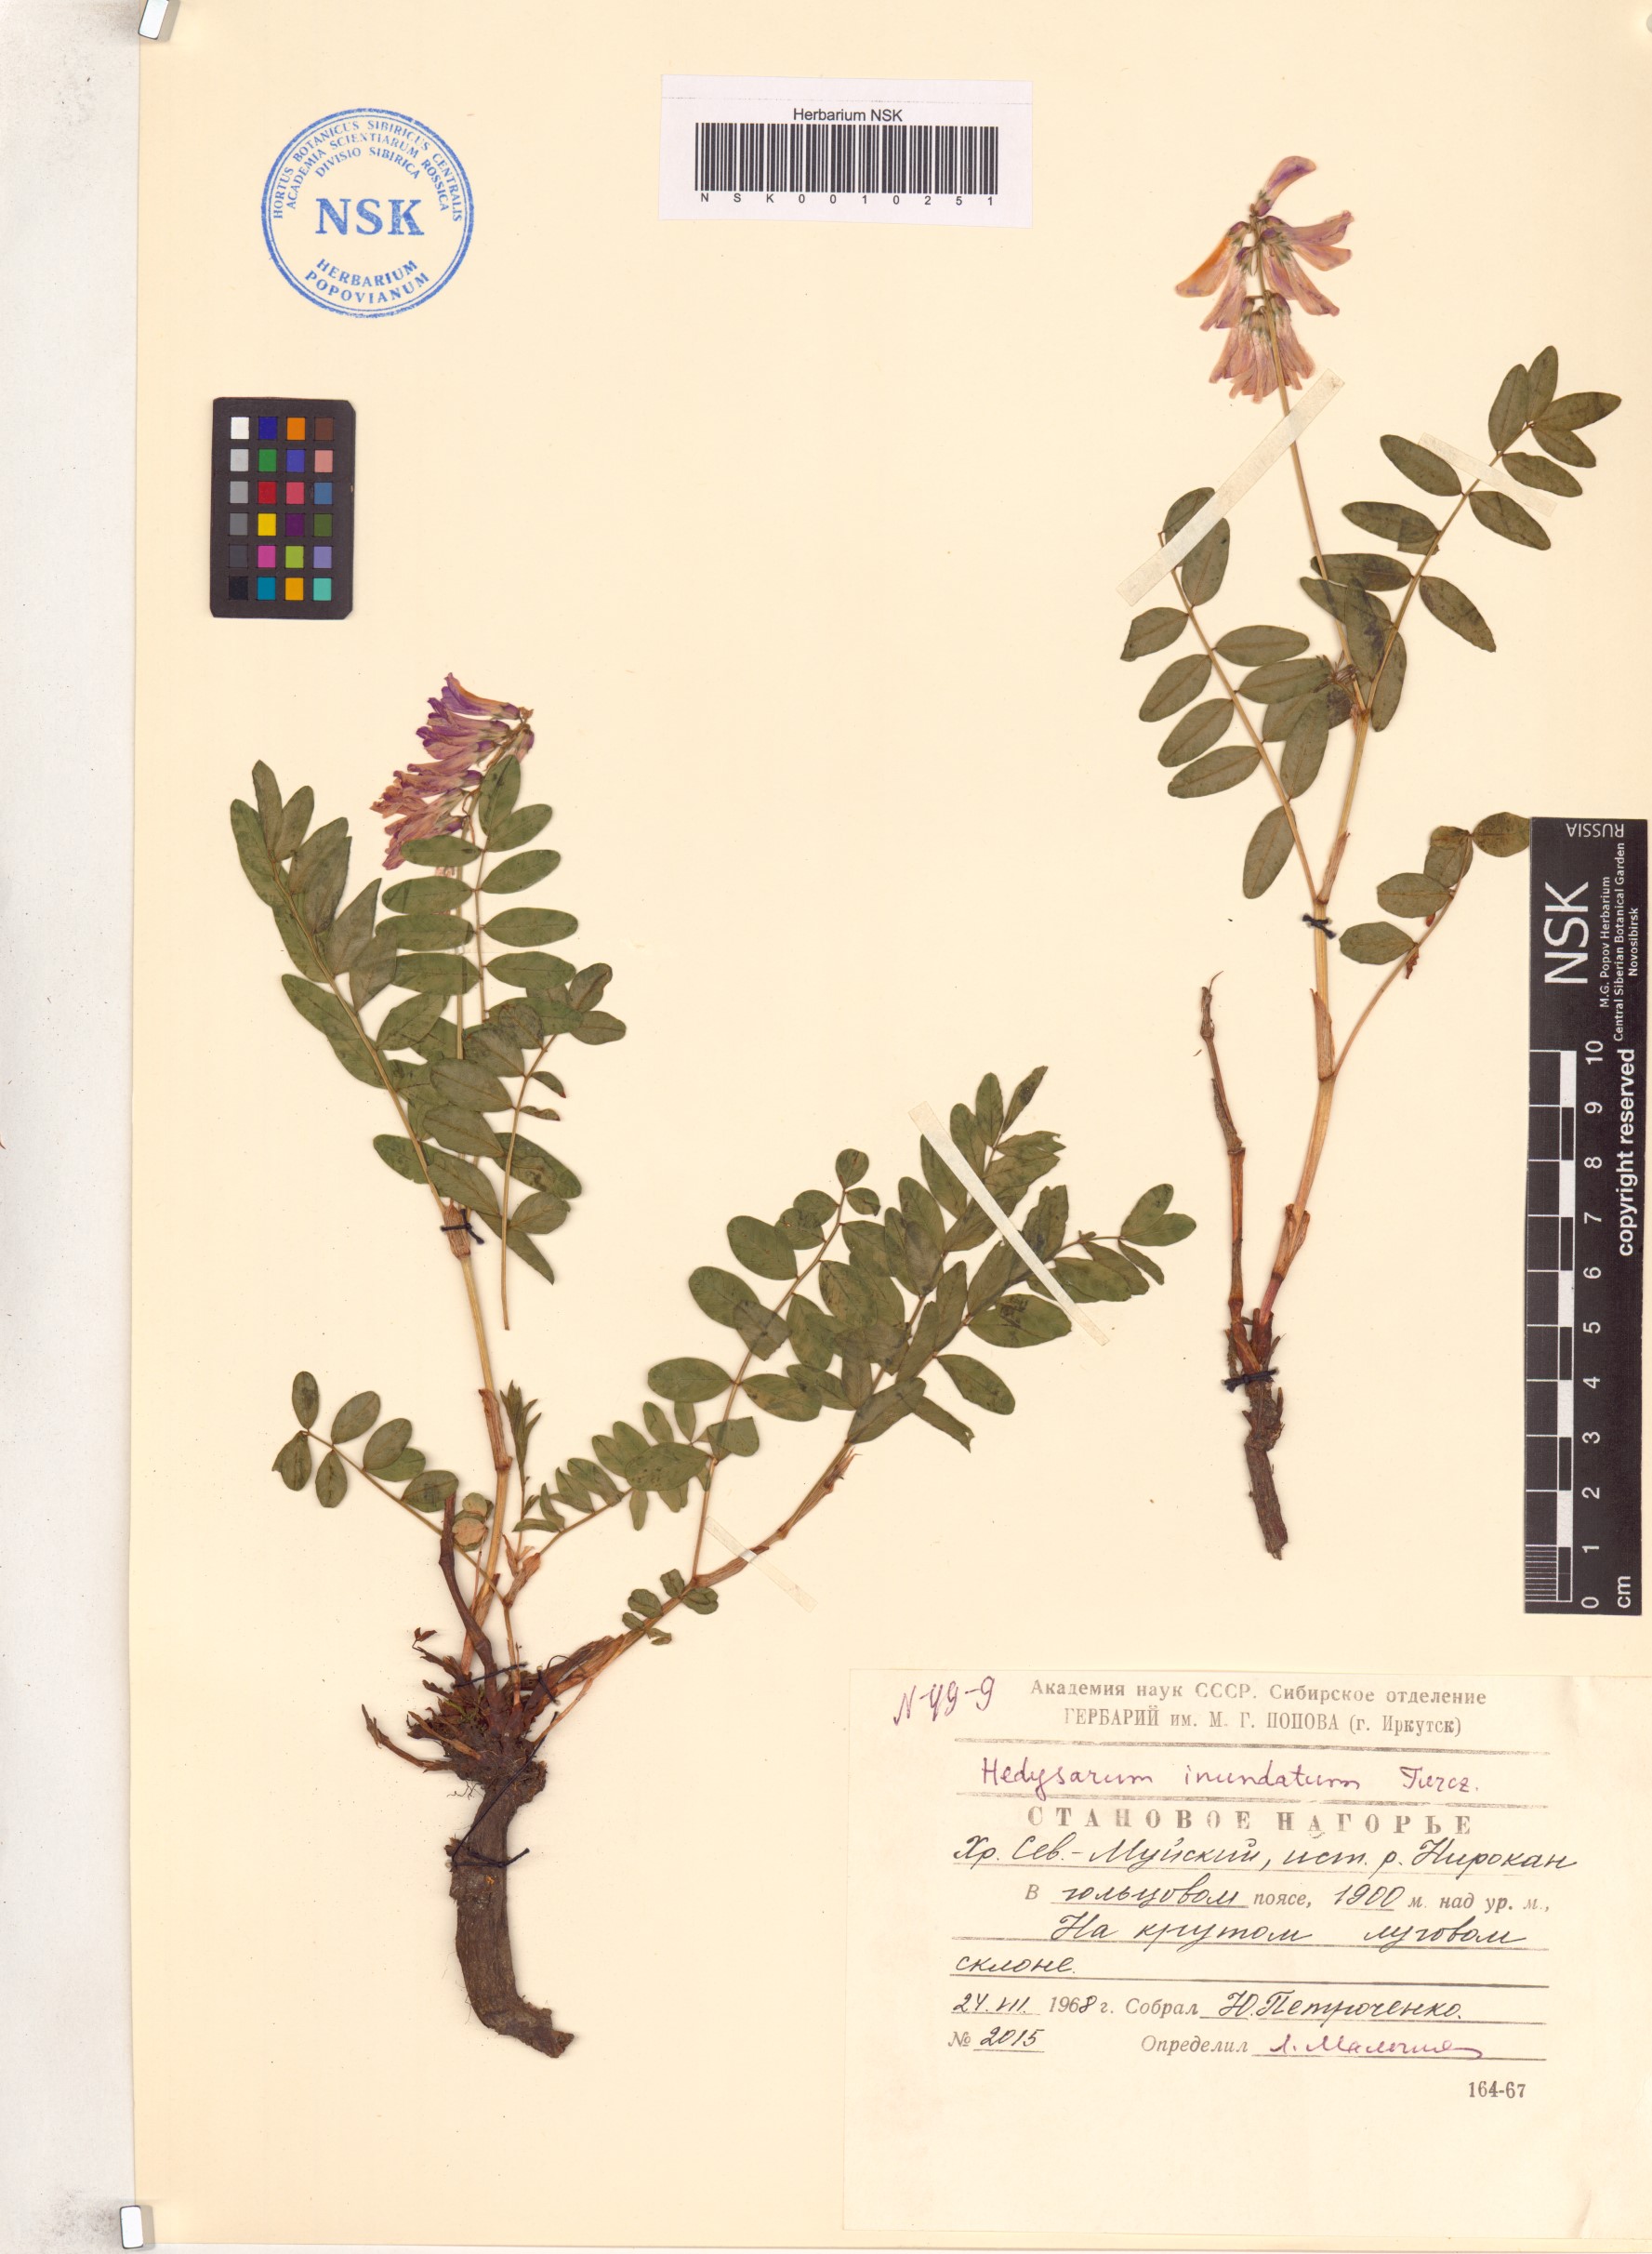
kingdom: Plantae
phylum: Tracheophyta
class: Magnoliopsida
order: Fabales
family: Fabaceae
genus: Hedysarum
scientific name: Hedysarum inundatum
